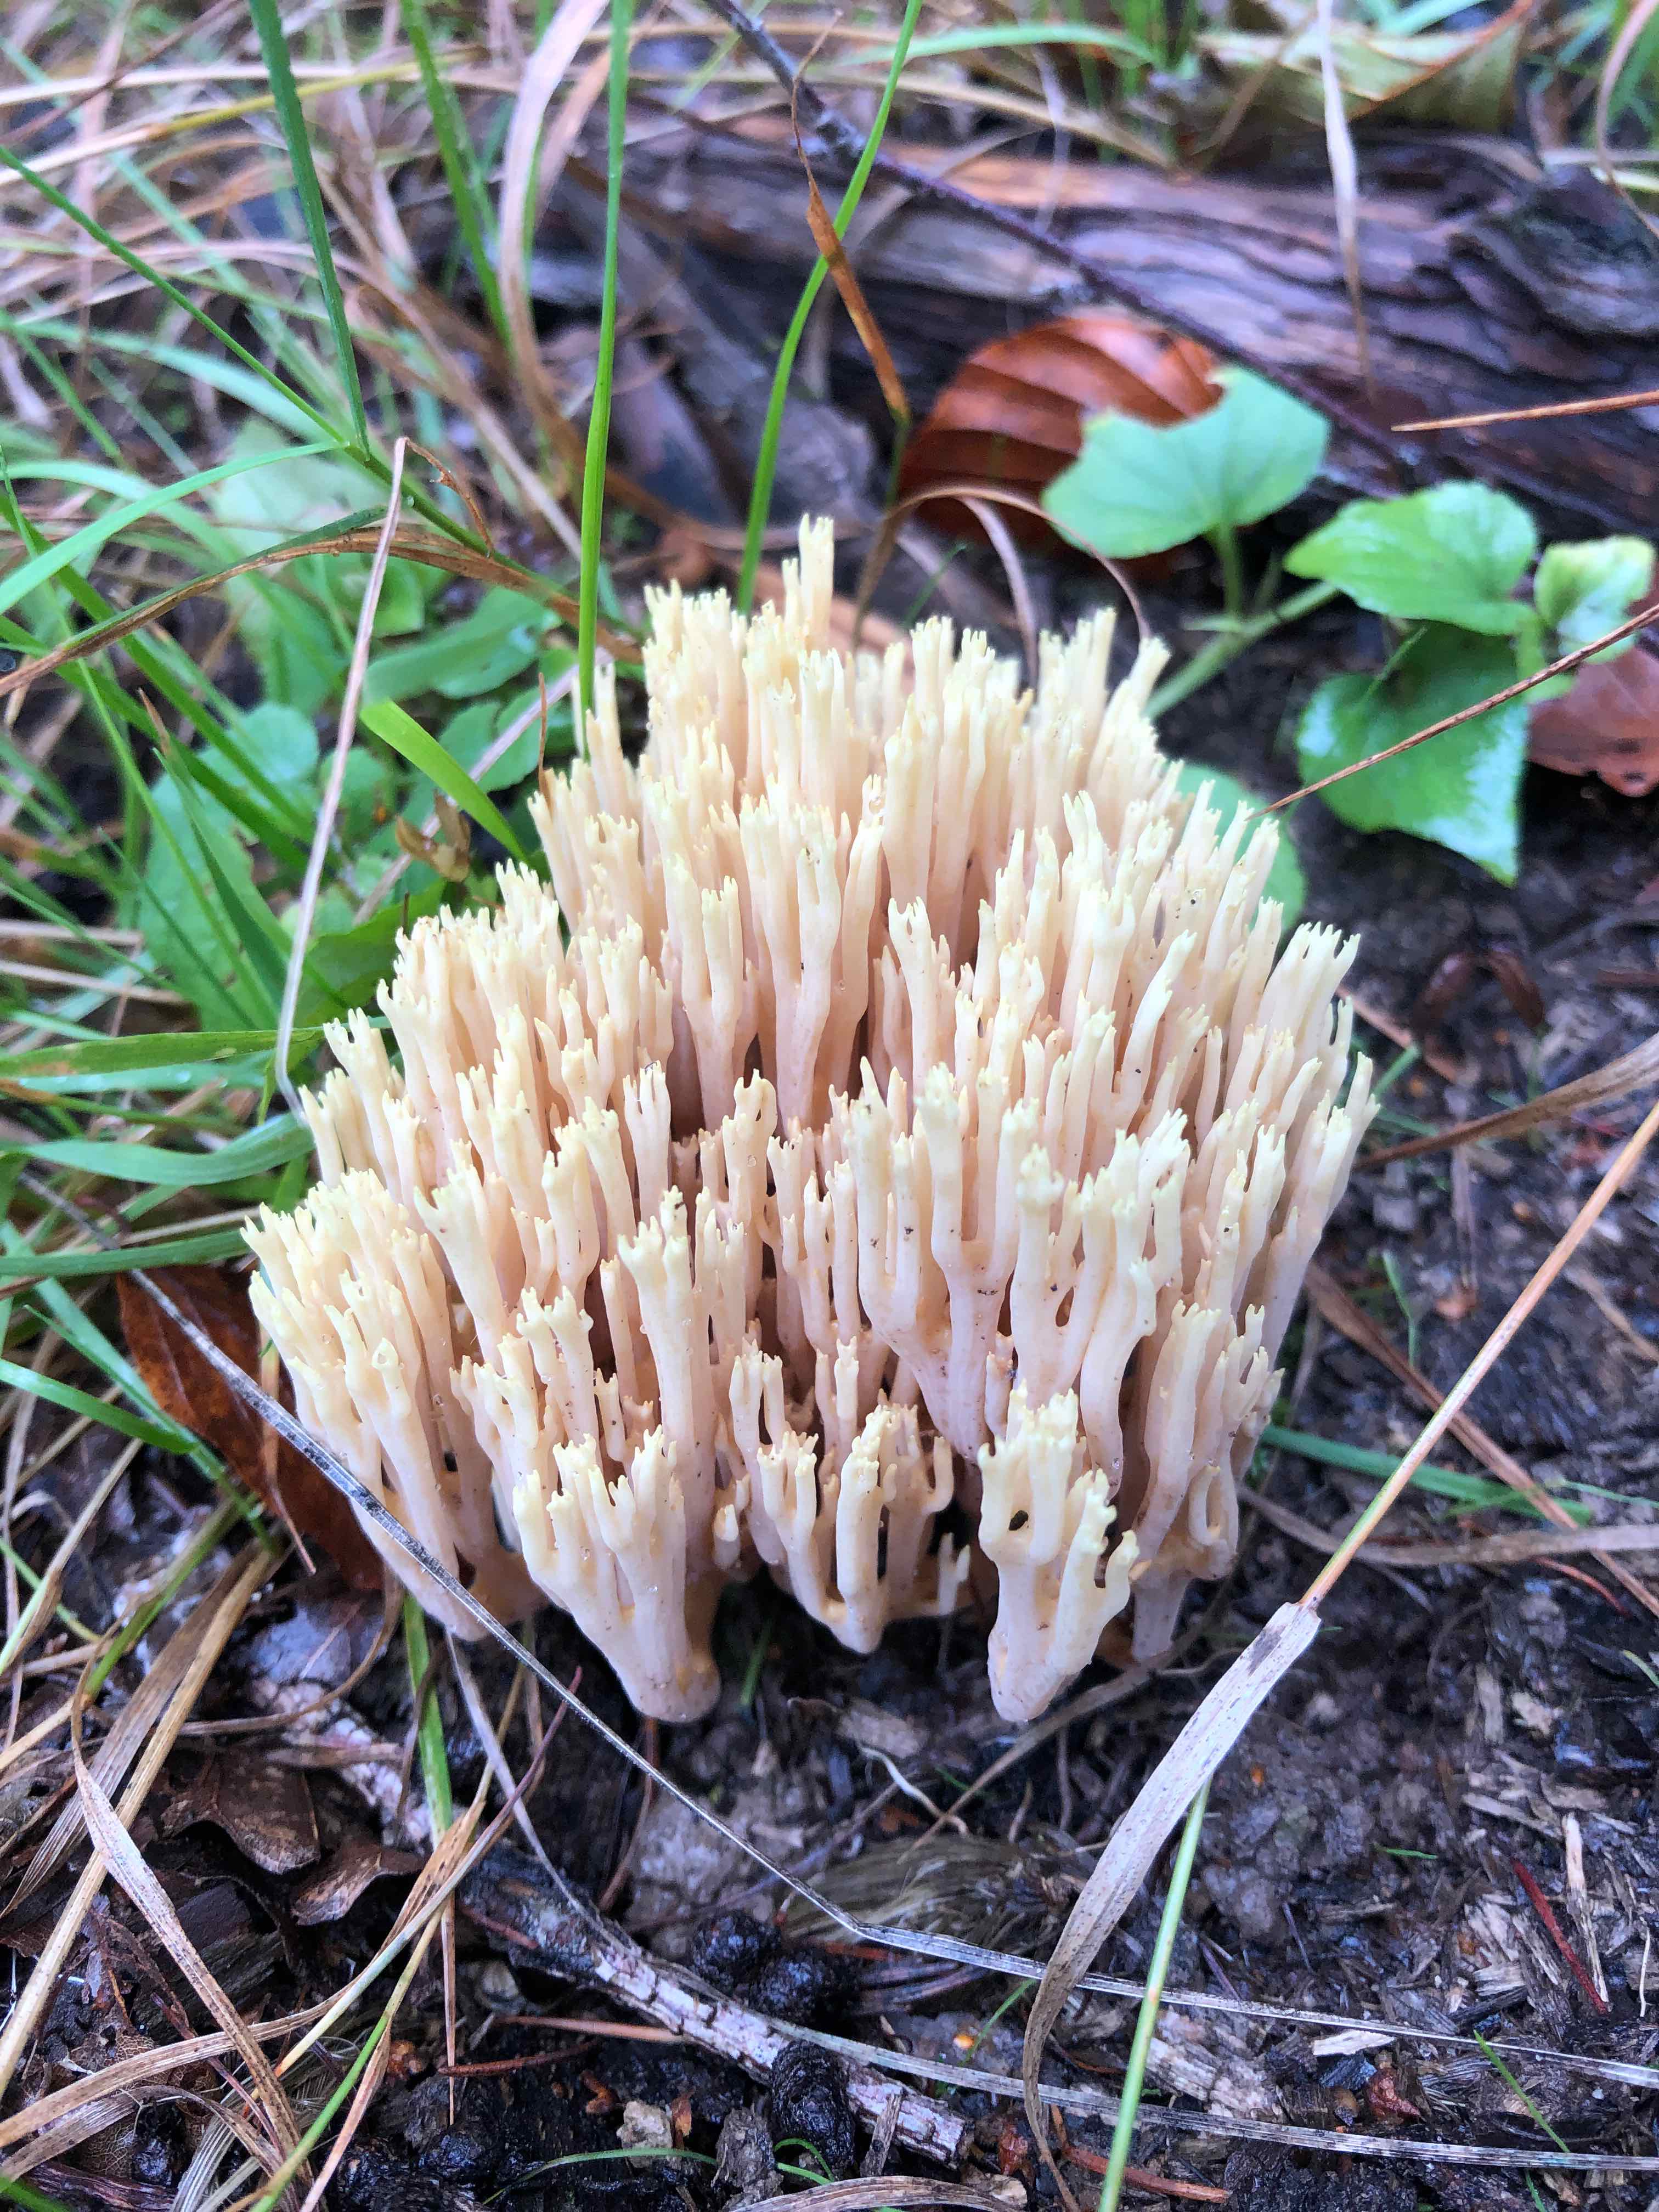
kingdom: Fungi
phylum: Basidiomycota
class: Agaricomycetes
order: Gomphales
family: Gomphaceae
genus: Ramaria
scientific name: Ramaria stricta
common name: rank koralsvamp
